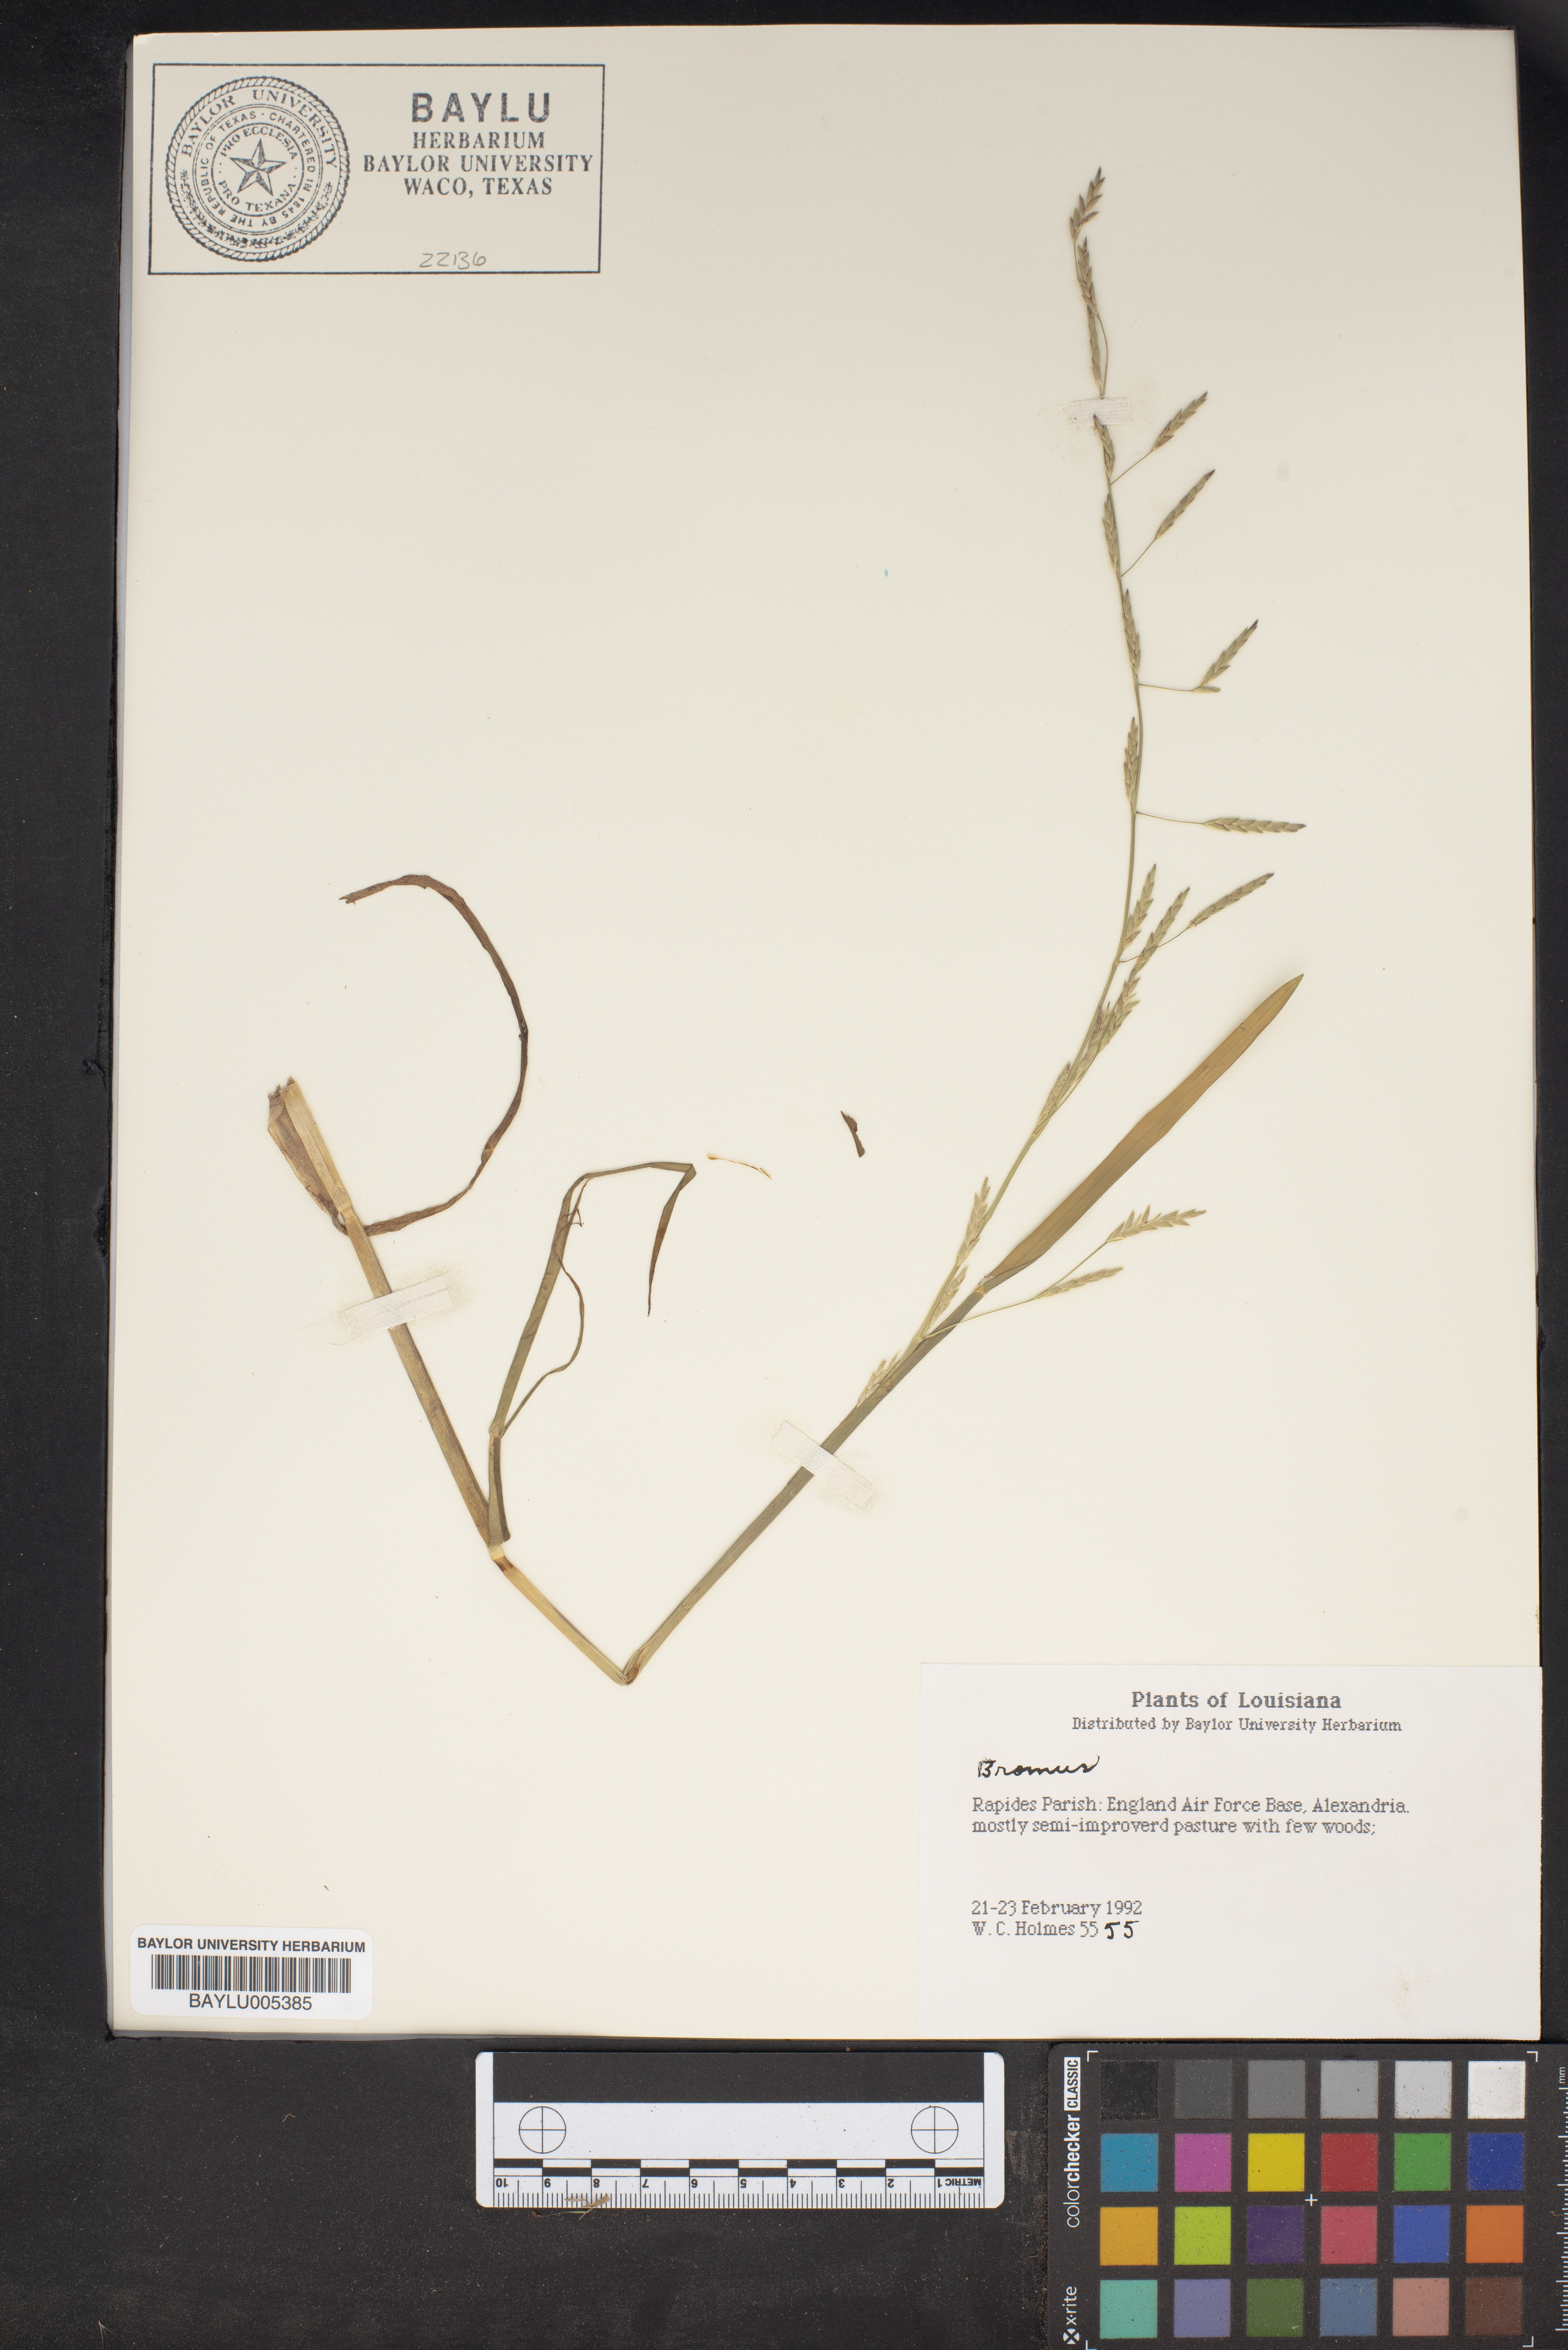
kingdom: Plantae
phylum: Tracheophyta
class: Liliopsida
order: Poales
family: Poaceae
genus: Bromus
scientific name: Bromus
